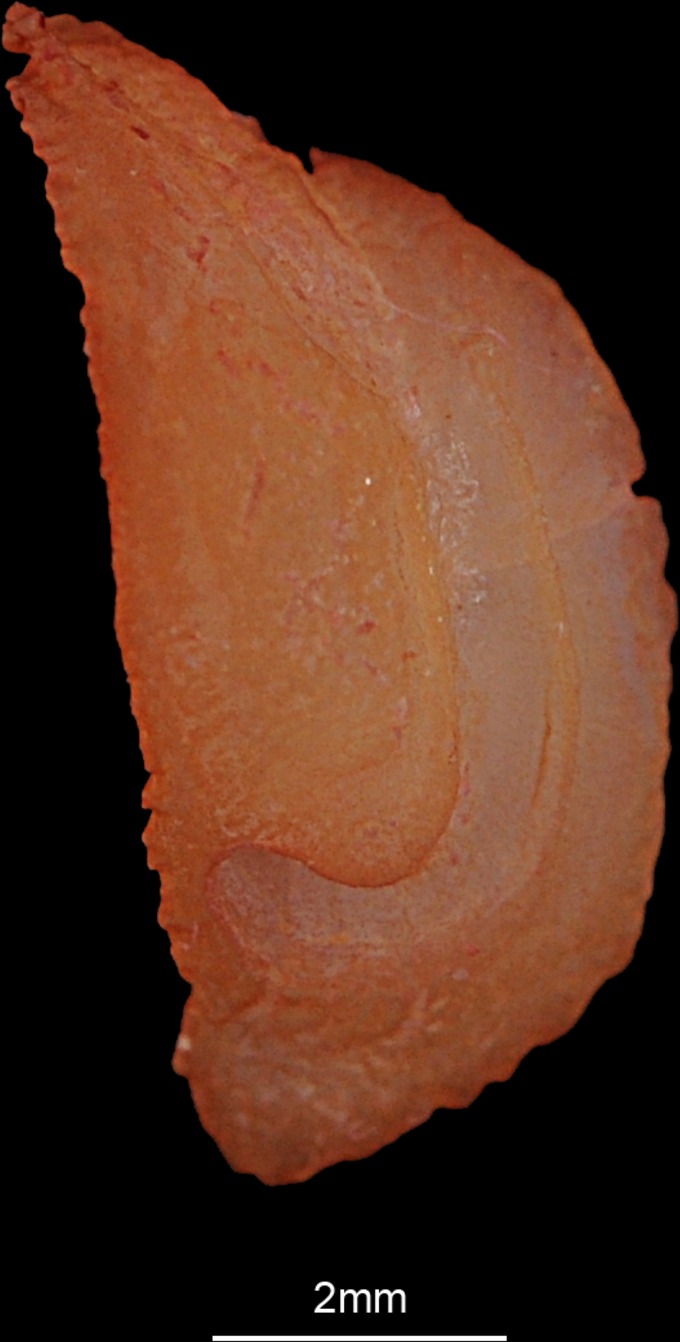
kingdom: Animalia
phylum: Chordata
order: Perciformes
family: Haemulidae
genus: Plectorhinchus
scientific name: Plectorhinchus gaterinus
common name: Blackspotted rubberlip
